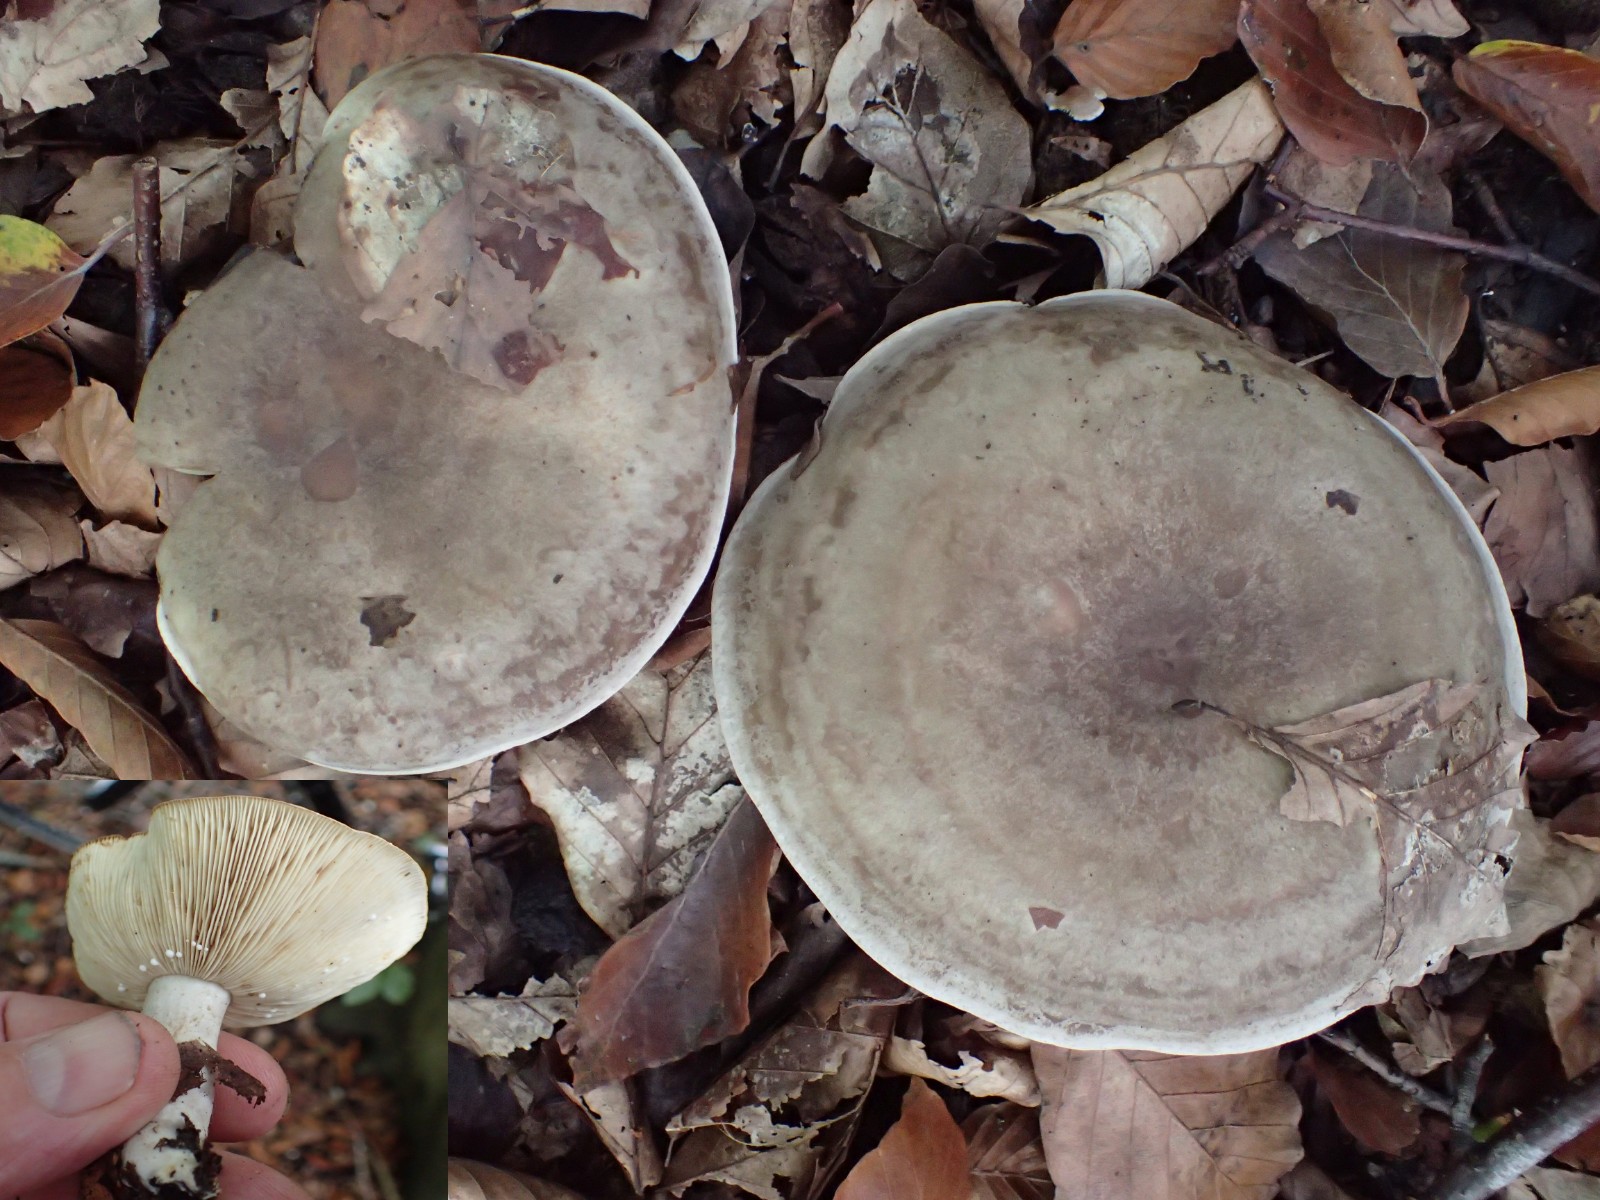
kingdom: Fungi
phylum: Basidiomycota
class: Agaricomycetes
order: Russulales
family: Russulaceae
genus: Lactarius
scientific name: Lactarius fluens
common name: lysrandet mælkehat
